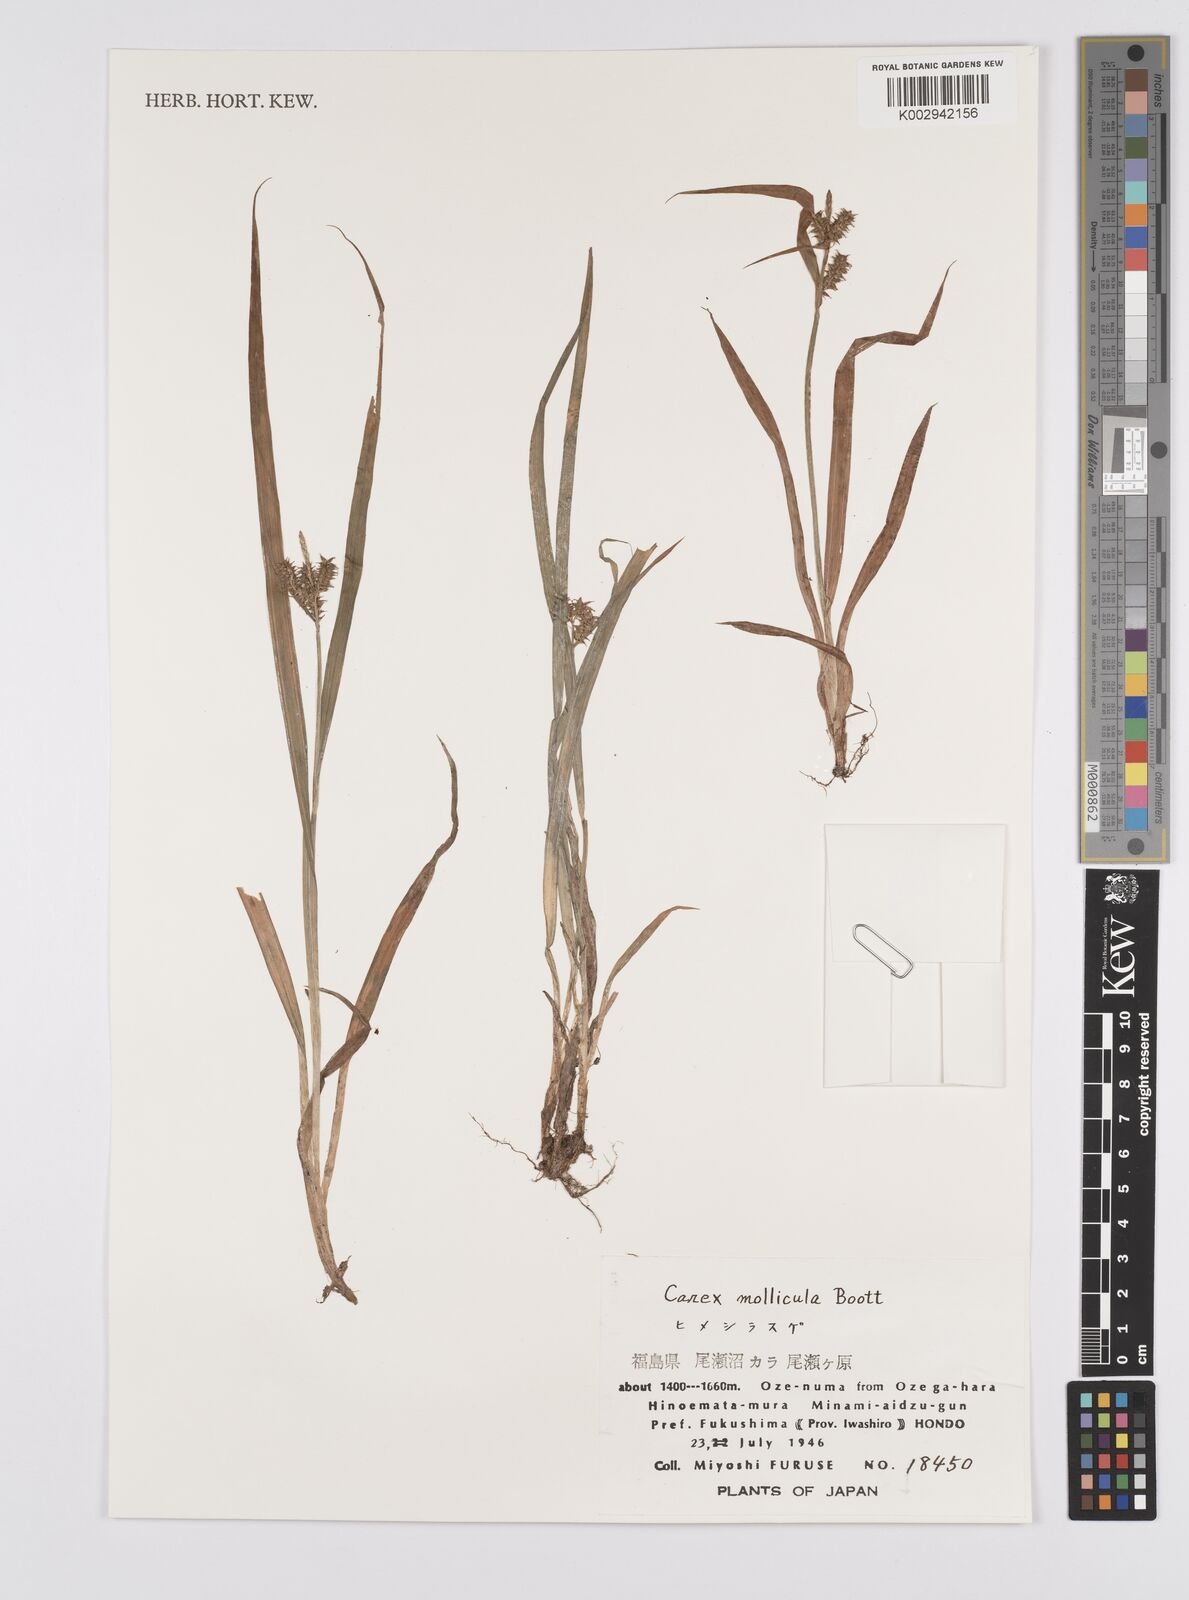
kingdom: Plantae
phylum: Tracheophyta
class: Liliopsida
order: Poales
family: Cyperaceae
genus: Carex
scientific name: Carex mollicula
